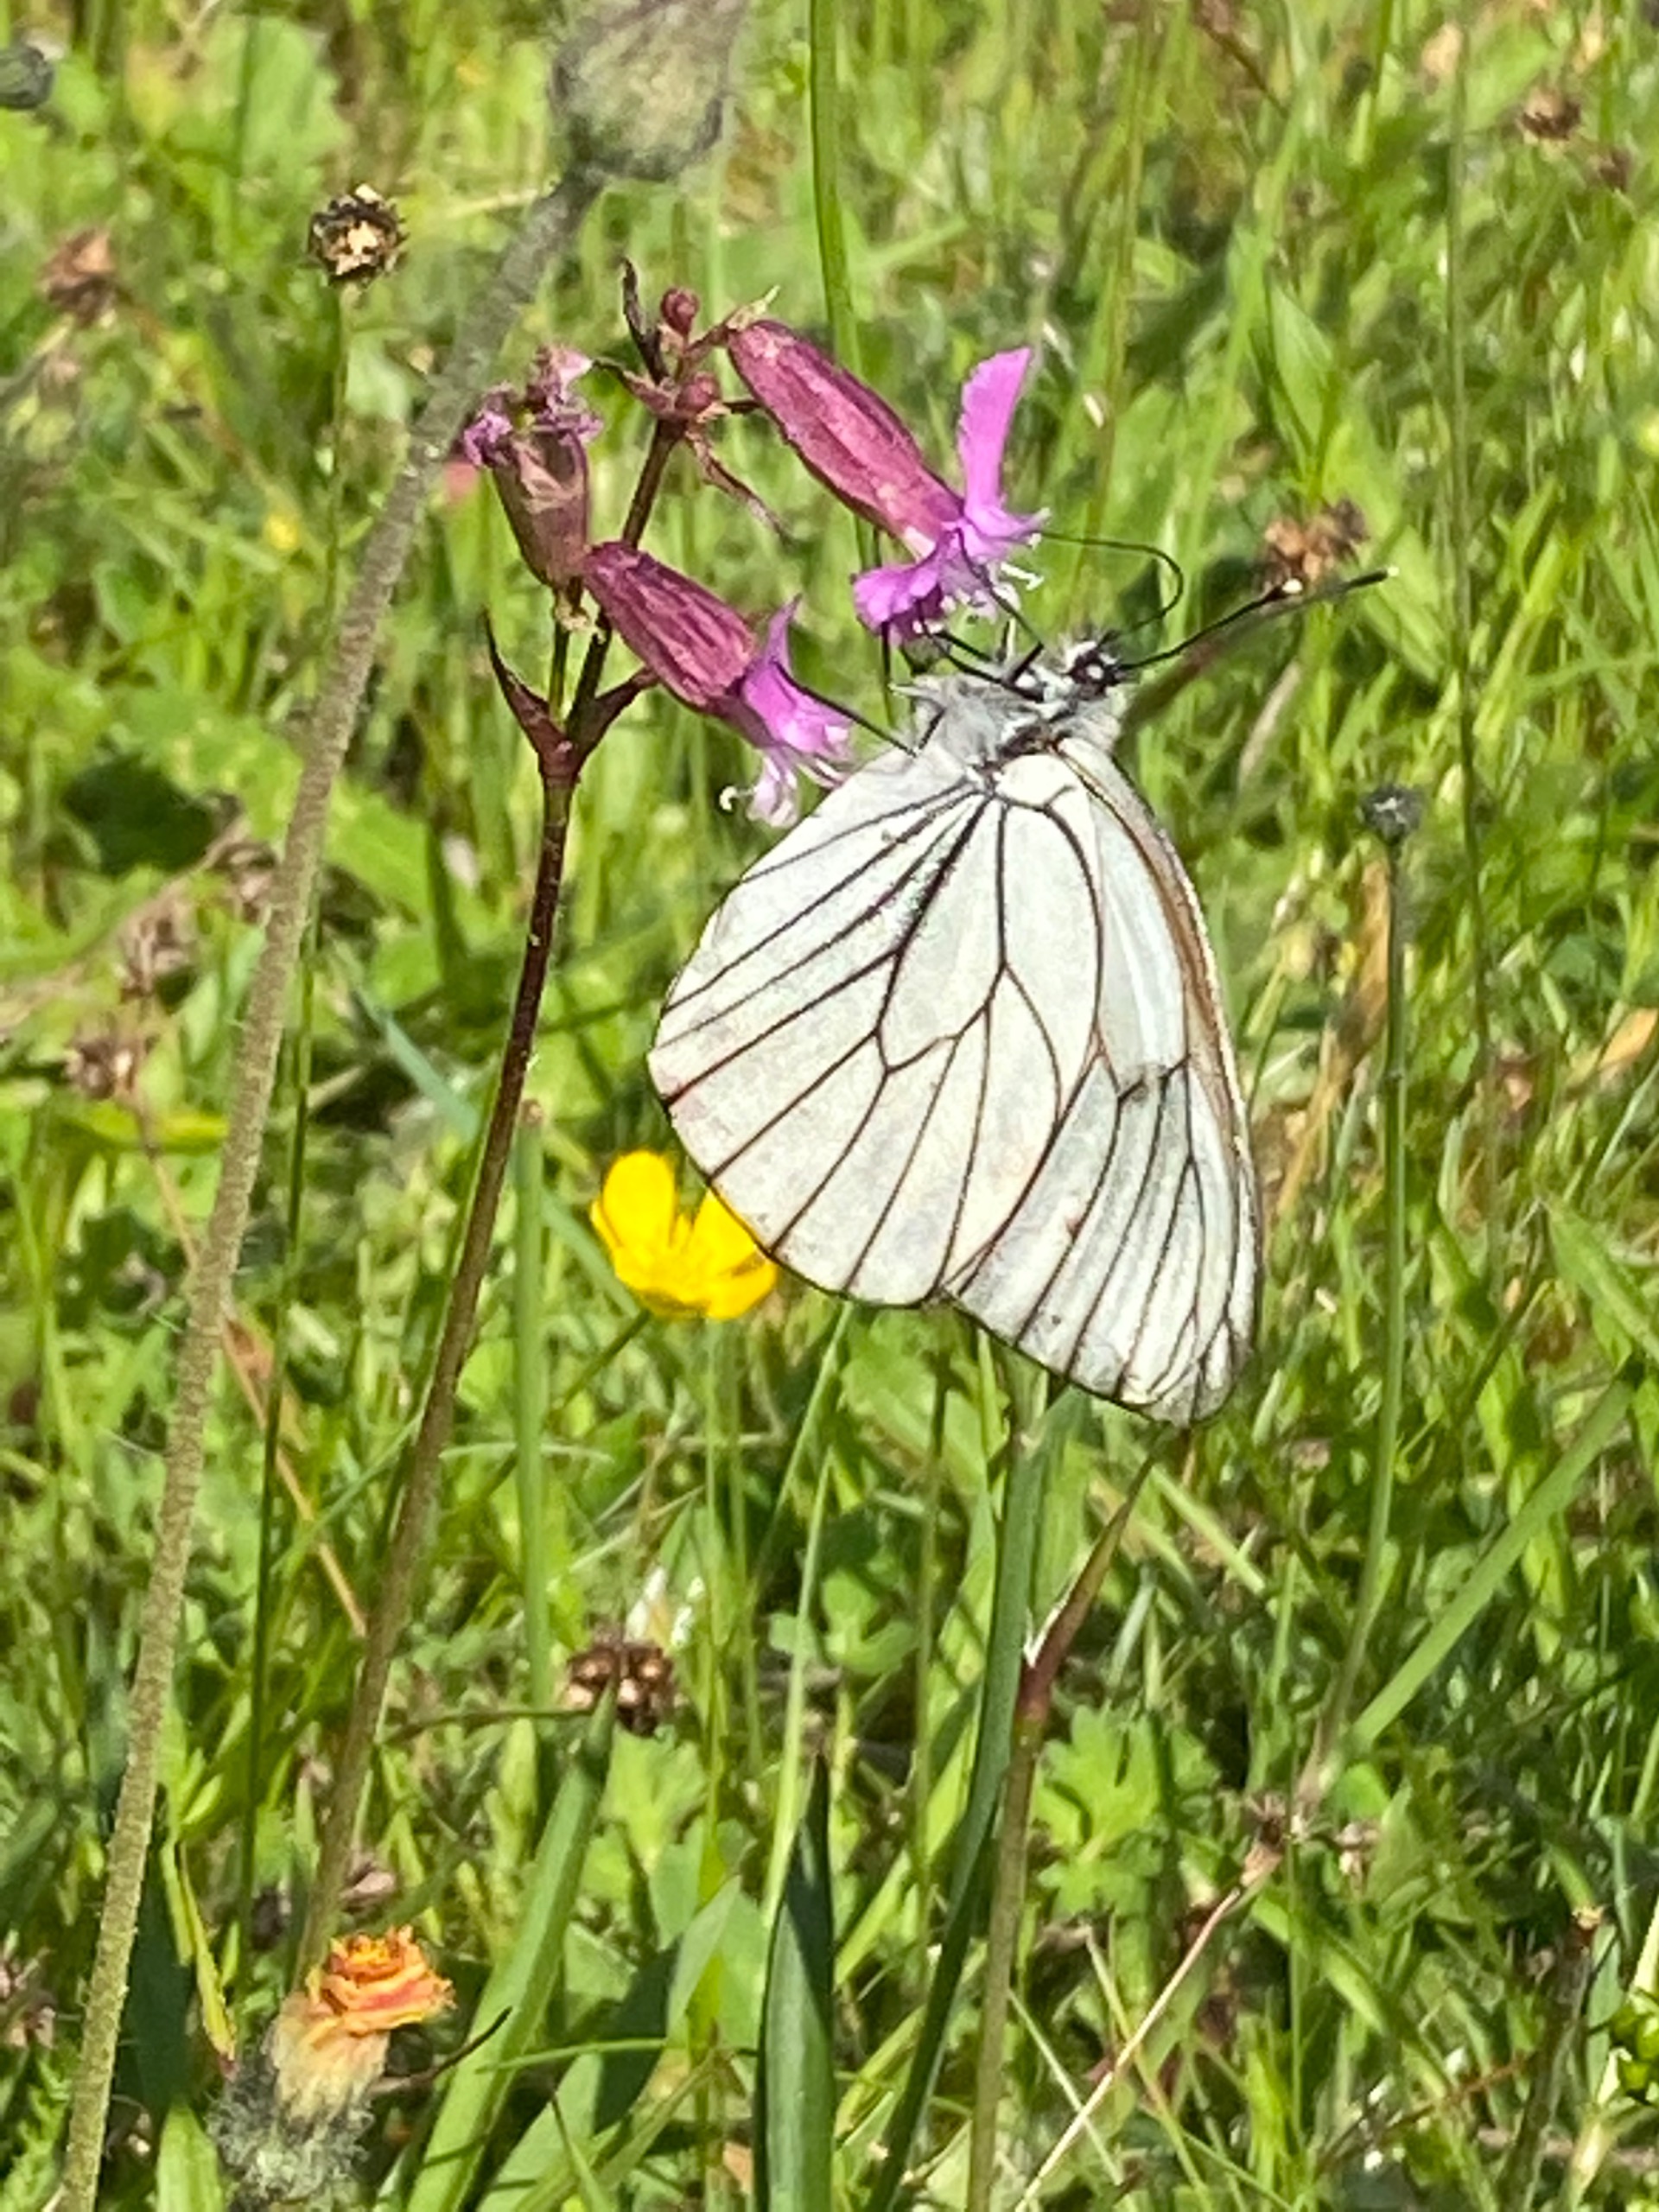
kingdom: Animalia
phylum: Arthropoda
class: Insecta
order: Lepidoptera
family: Pieridae
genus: Aporia
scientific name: Aporia crataegi
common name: Sortåret hvidvinge
